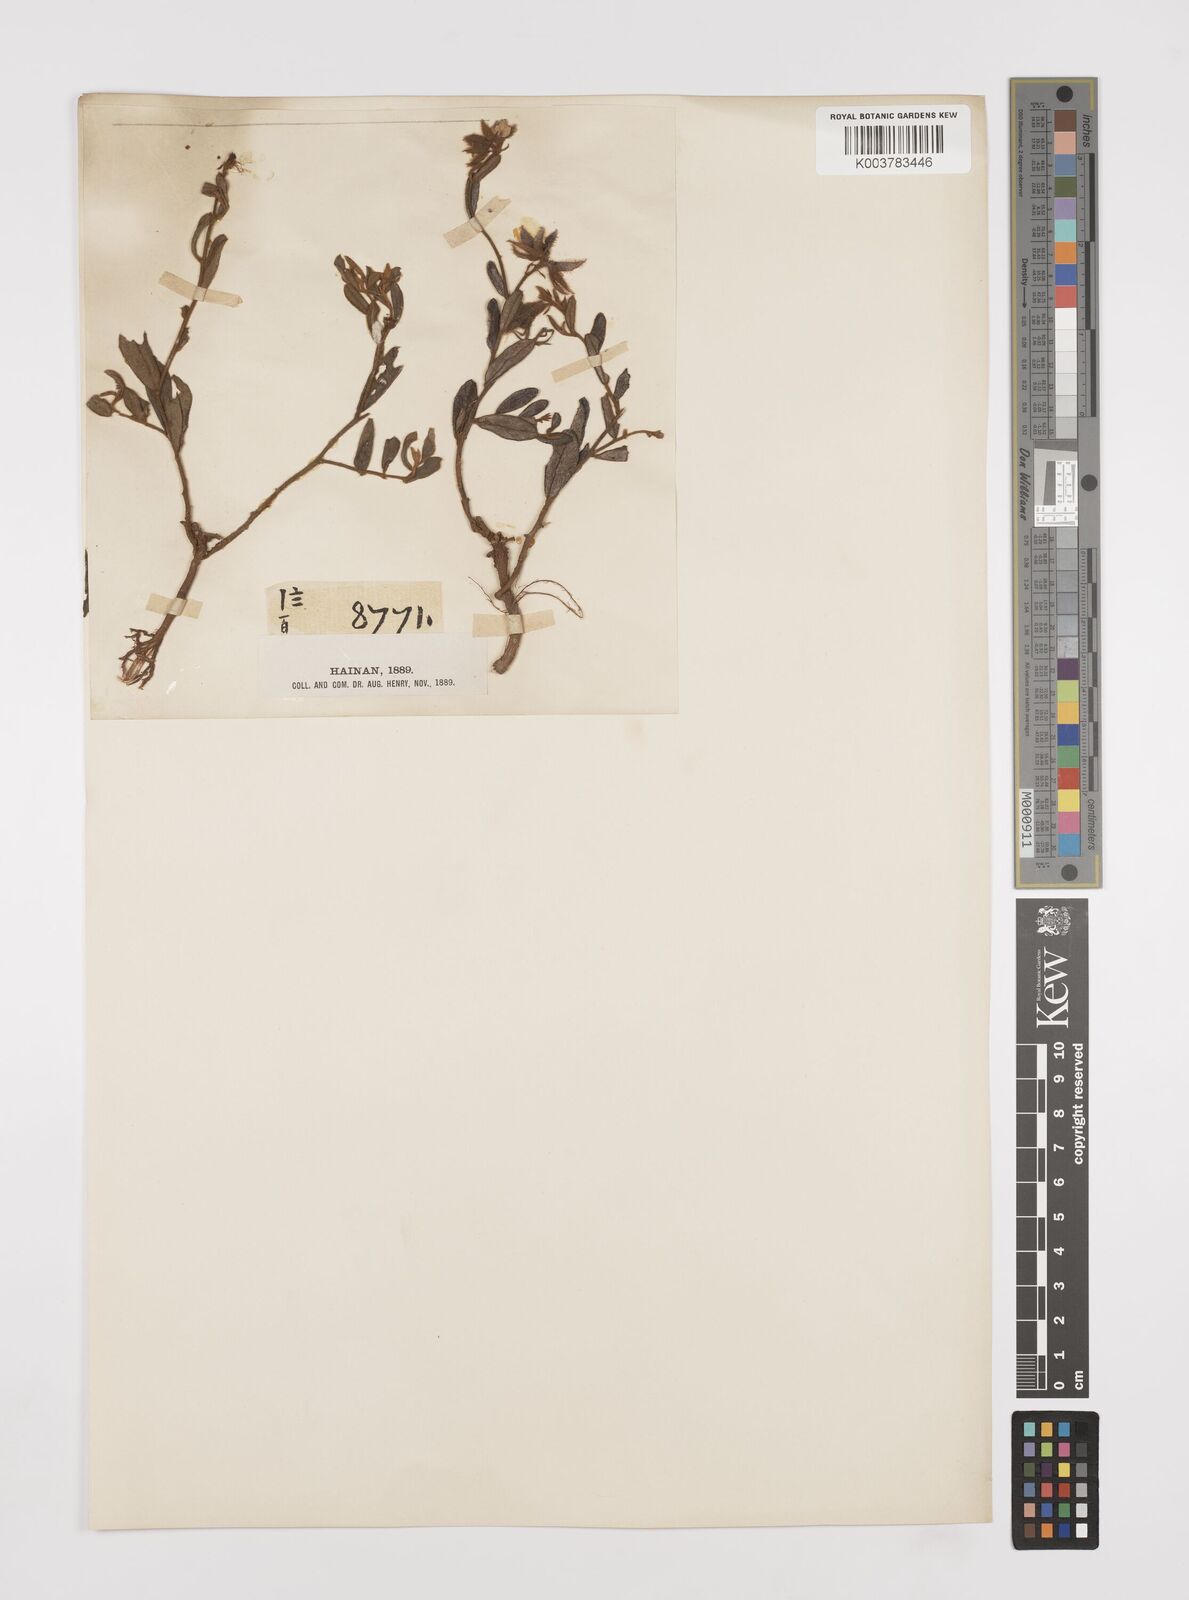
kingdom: Plantae
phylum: Tracheophyta
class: Magnoliopsida
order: Fabales
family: Fabaceae
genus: Crotalaria
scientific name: Crotalaria chinensis
